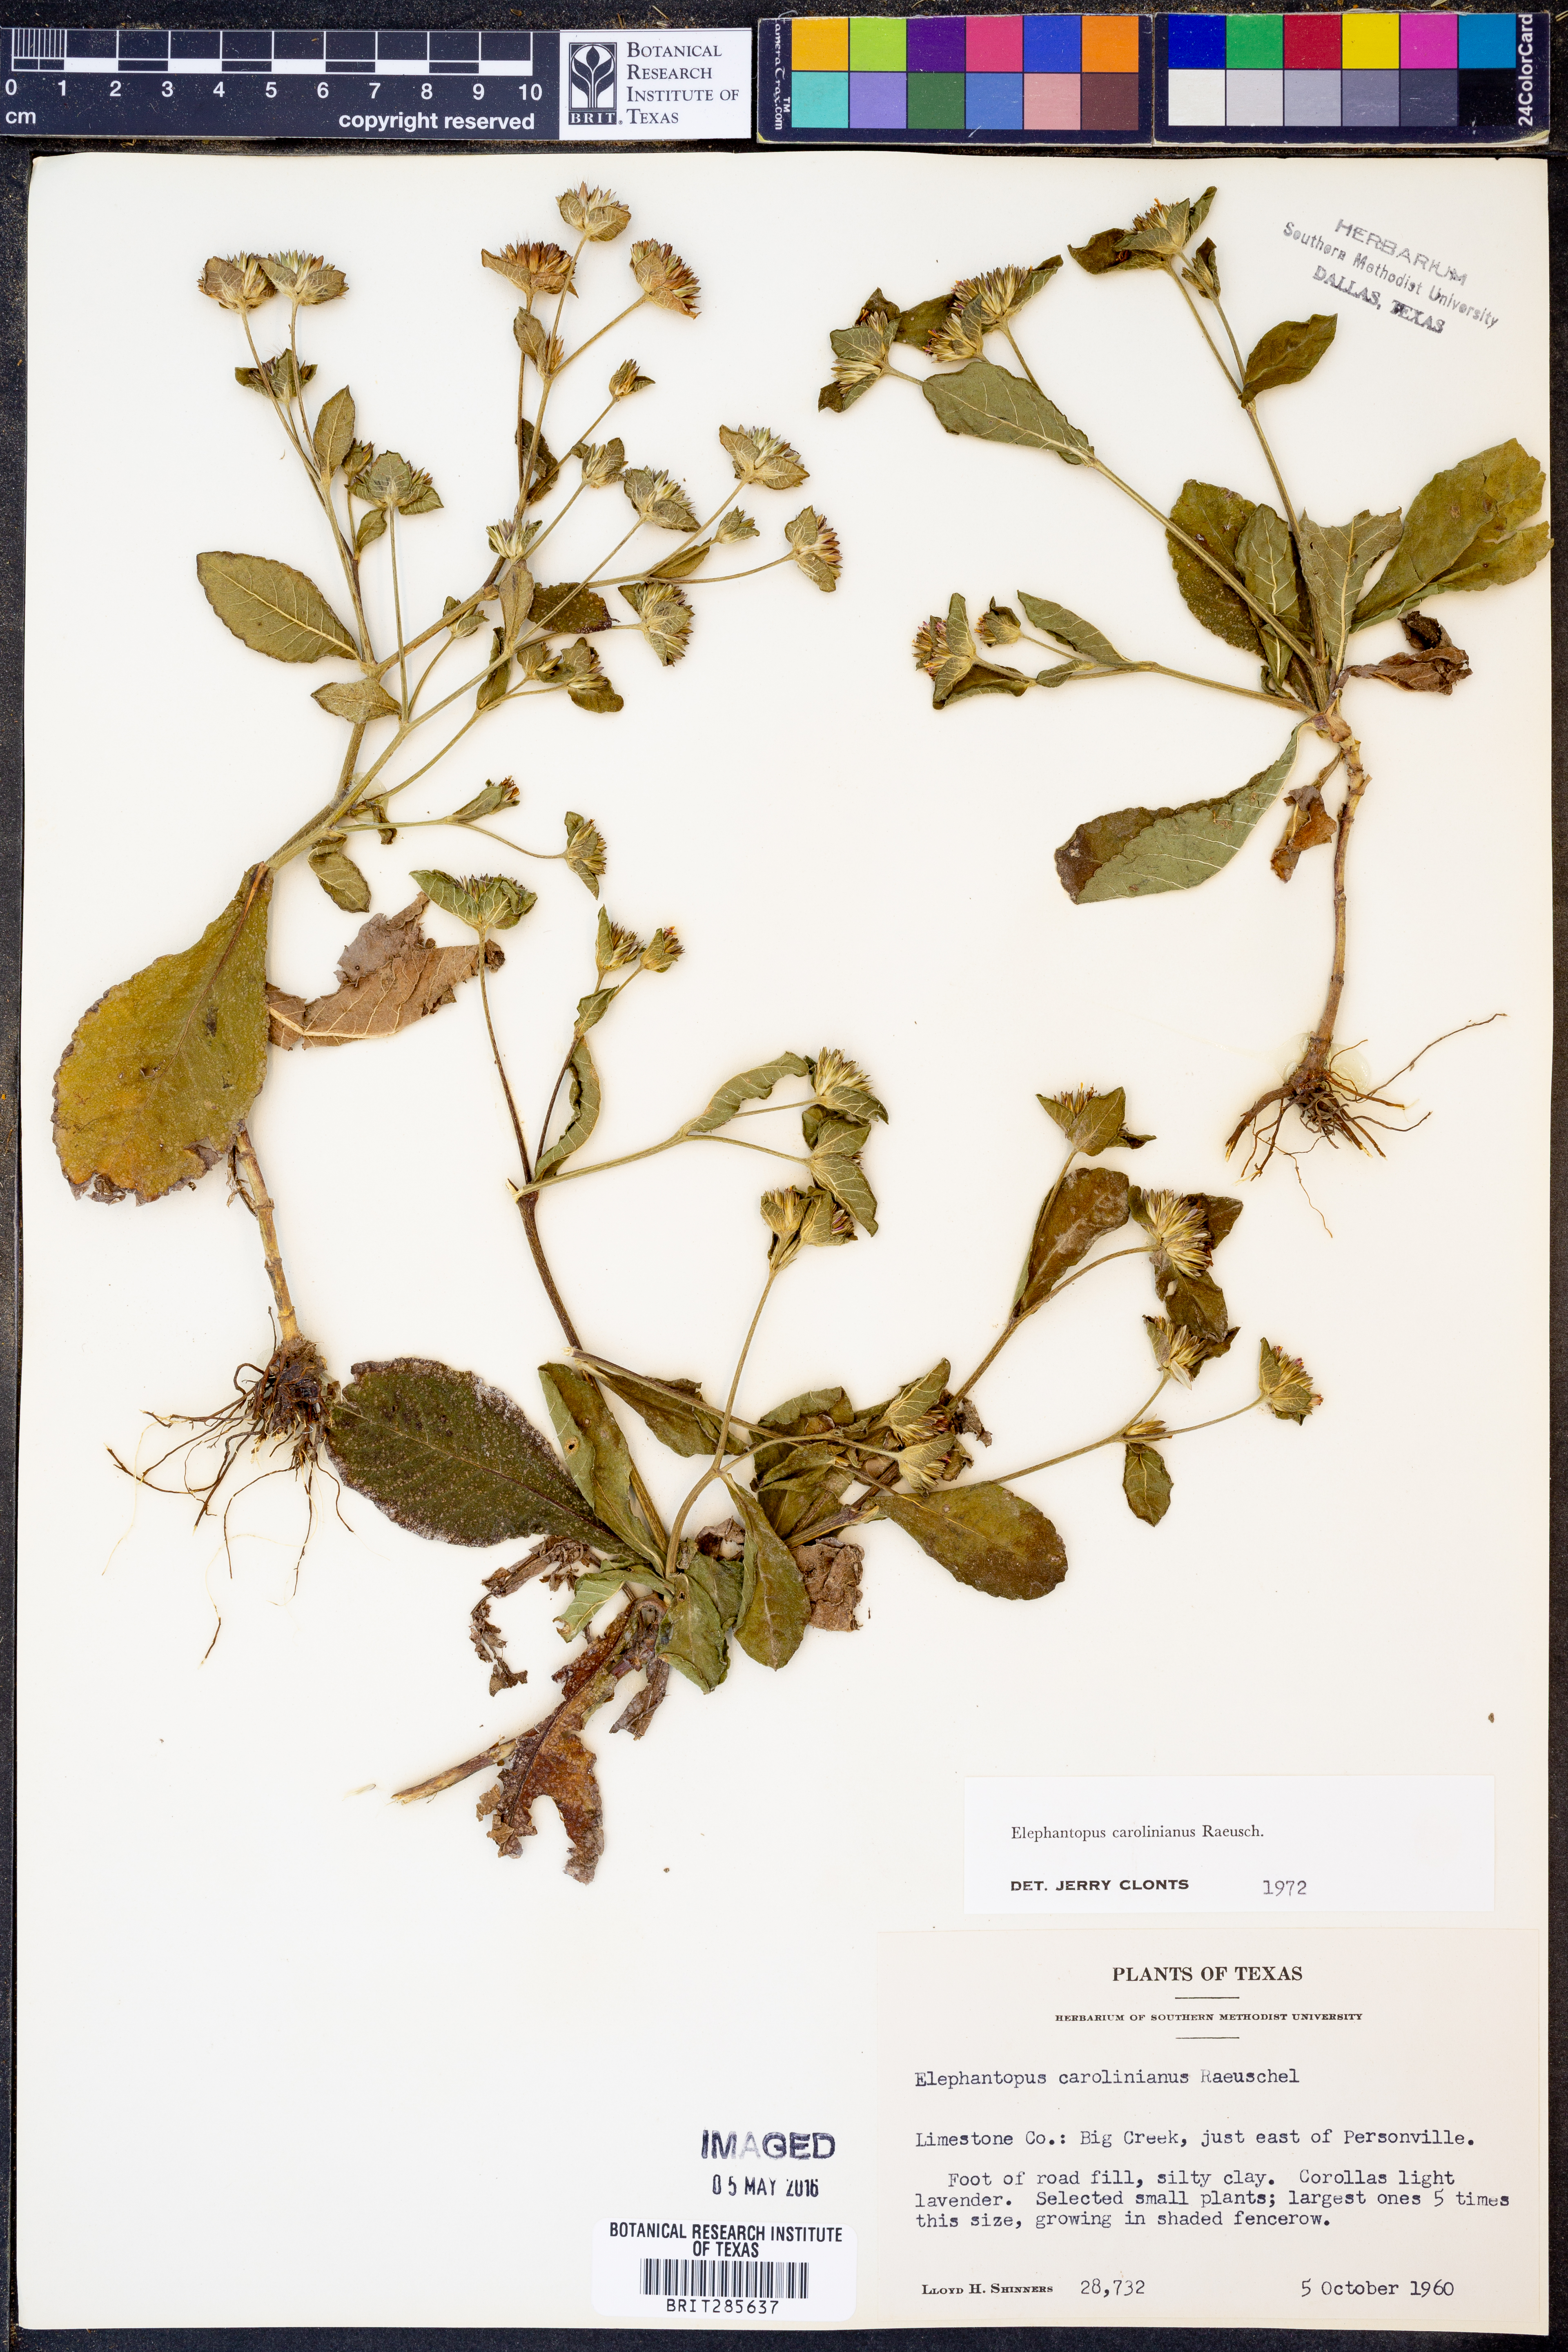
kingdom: Plantae
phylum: Tracheophyta
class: Magnoliopsida
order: Asterales
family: Asteraceae
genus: Elephantopus
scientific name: Elephantopus carolinianus
